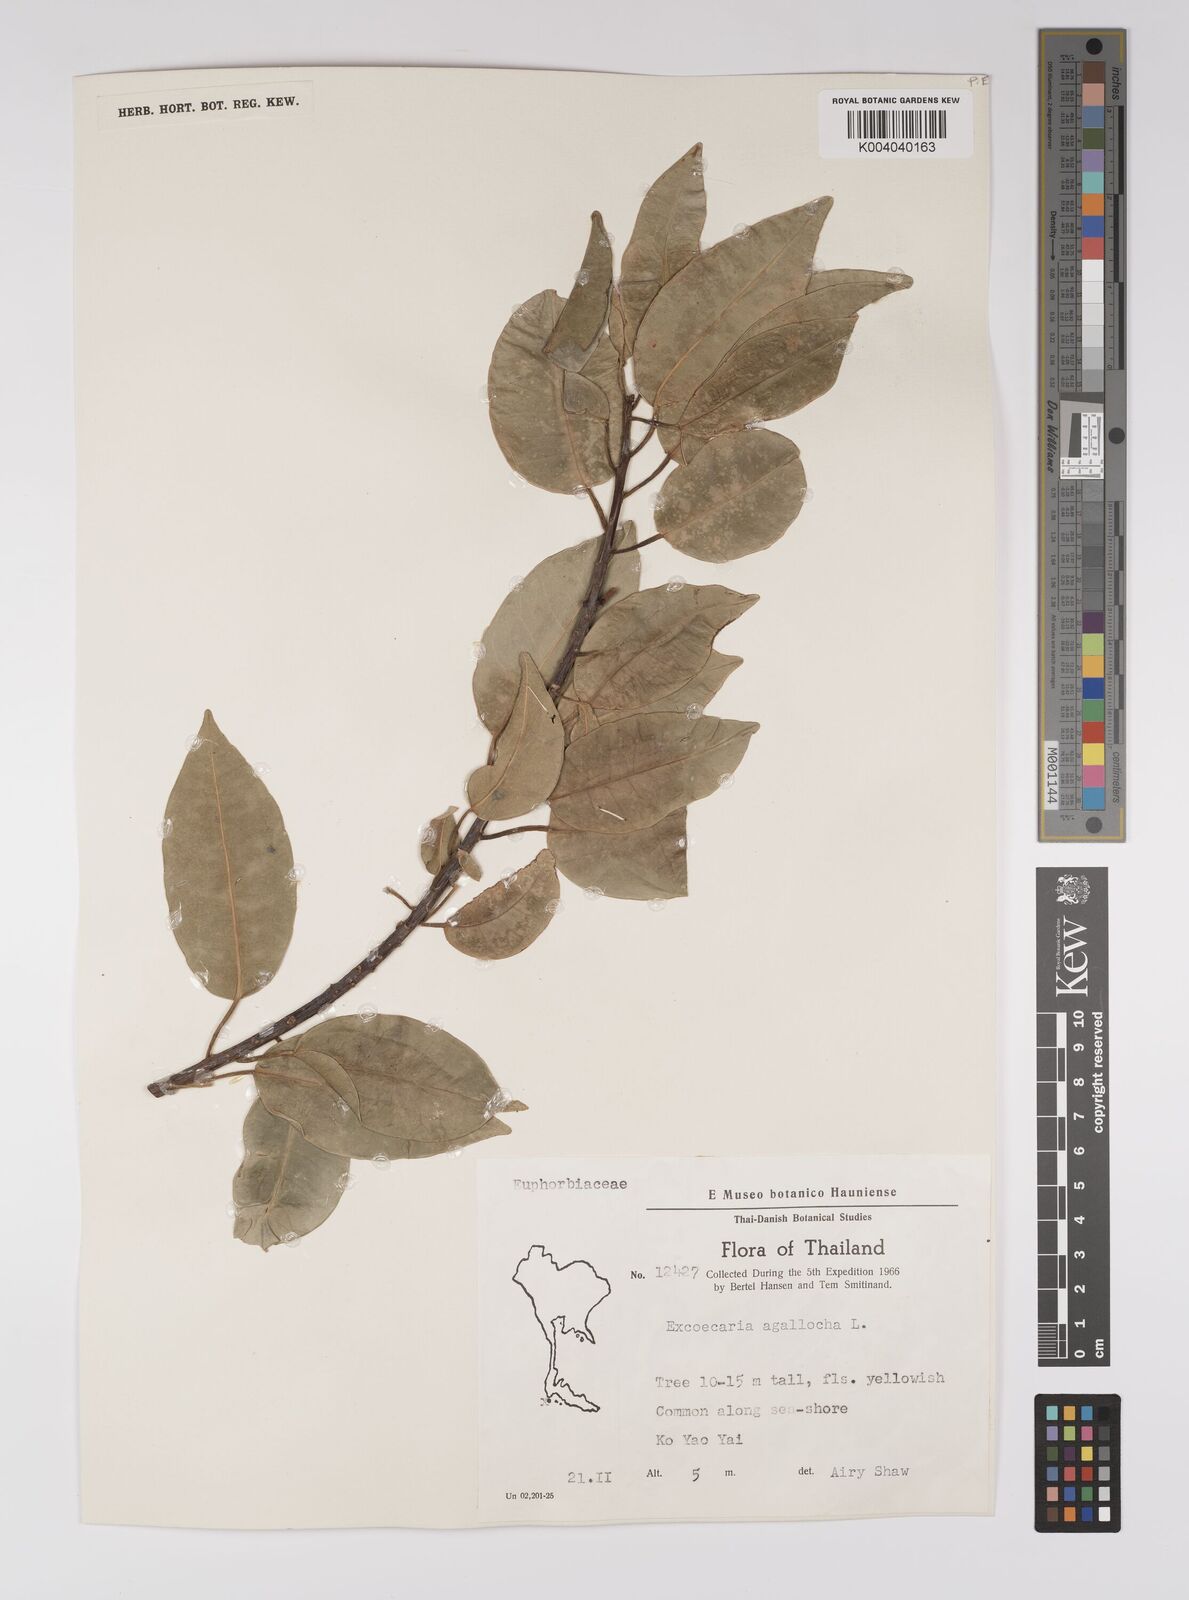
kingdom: Plantae
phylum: Tracheophyta
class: Magnoliopsida
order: Malpighiales
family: Euphorbiaceae
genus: Excoecaria
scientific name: Excoecaria agallocha
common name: River poisontree
